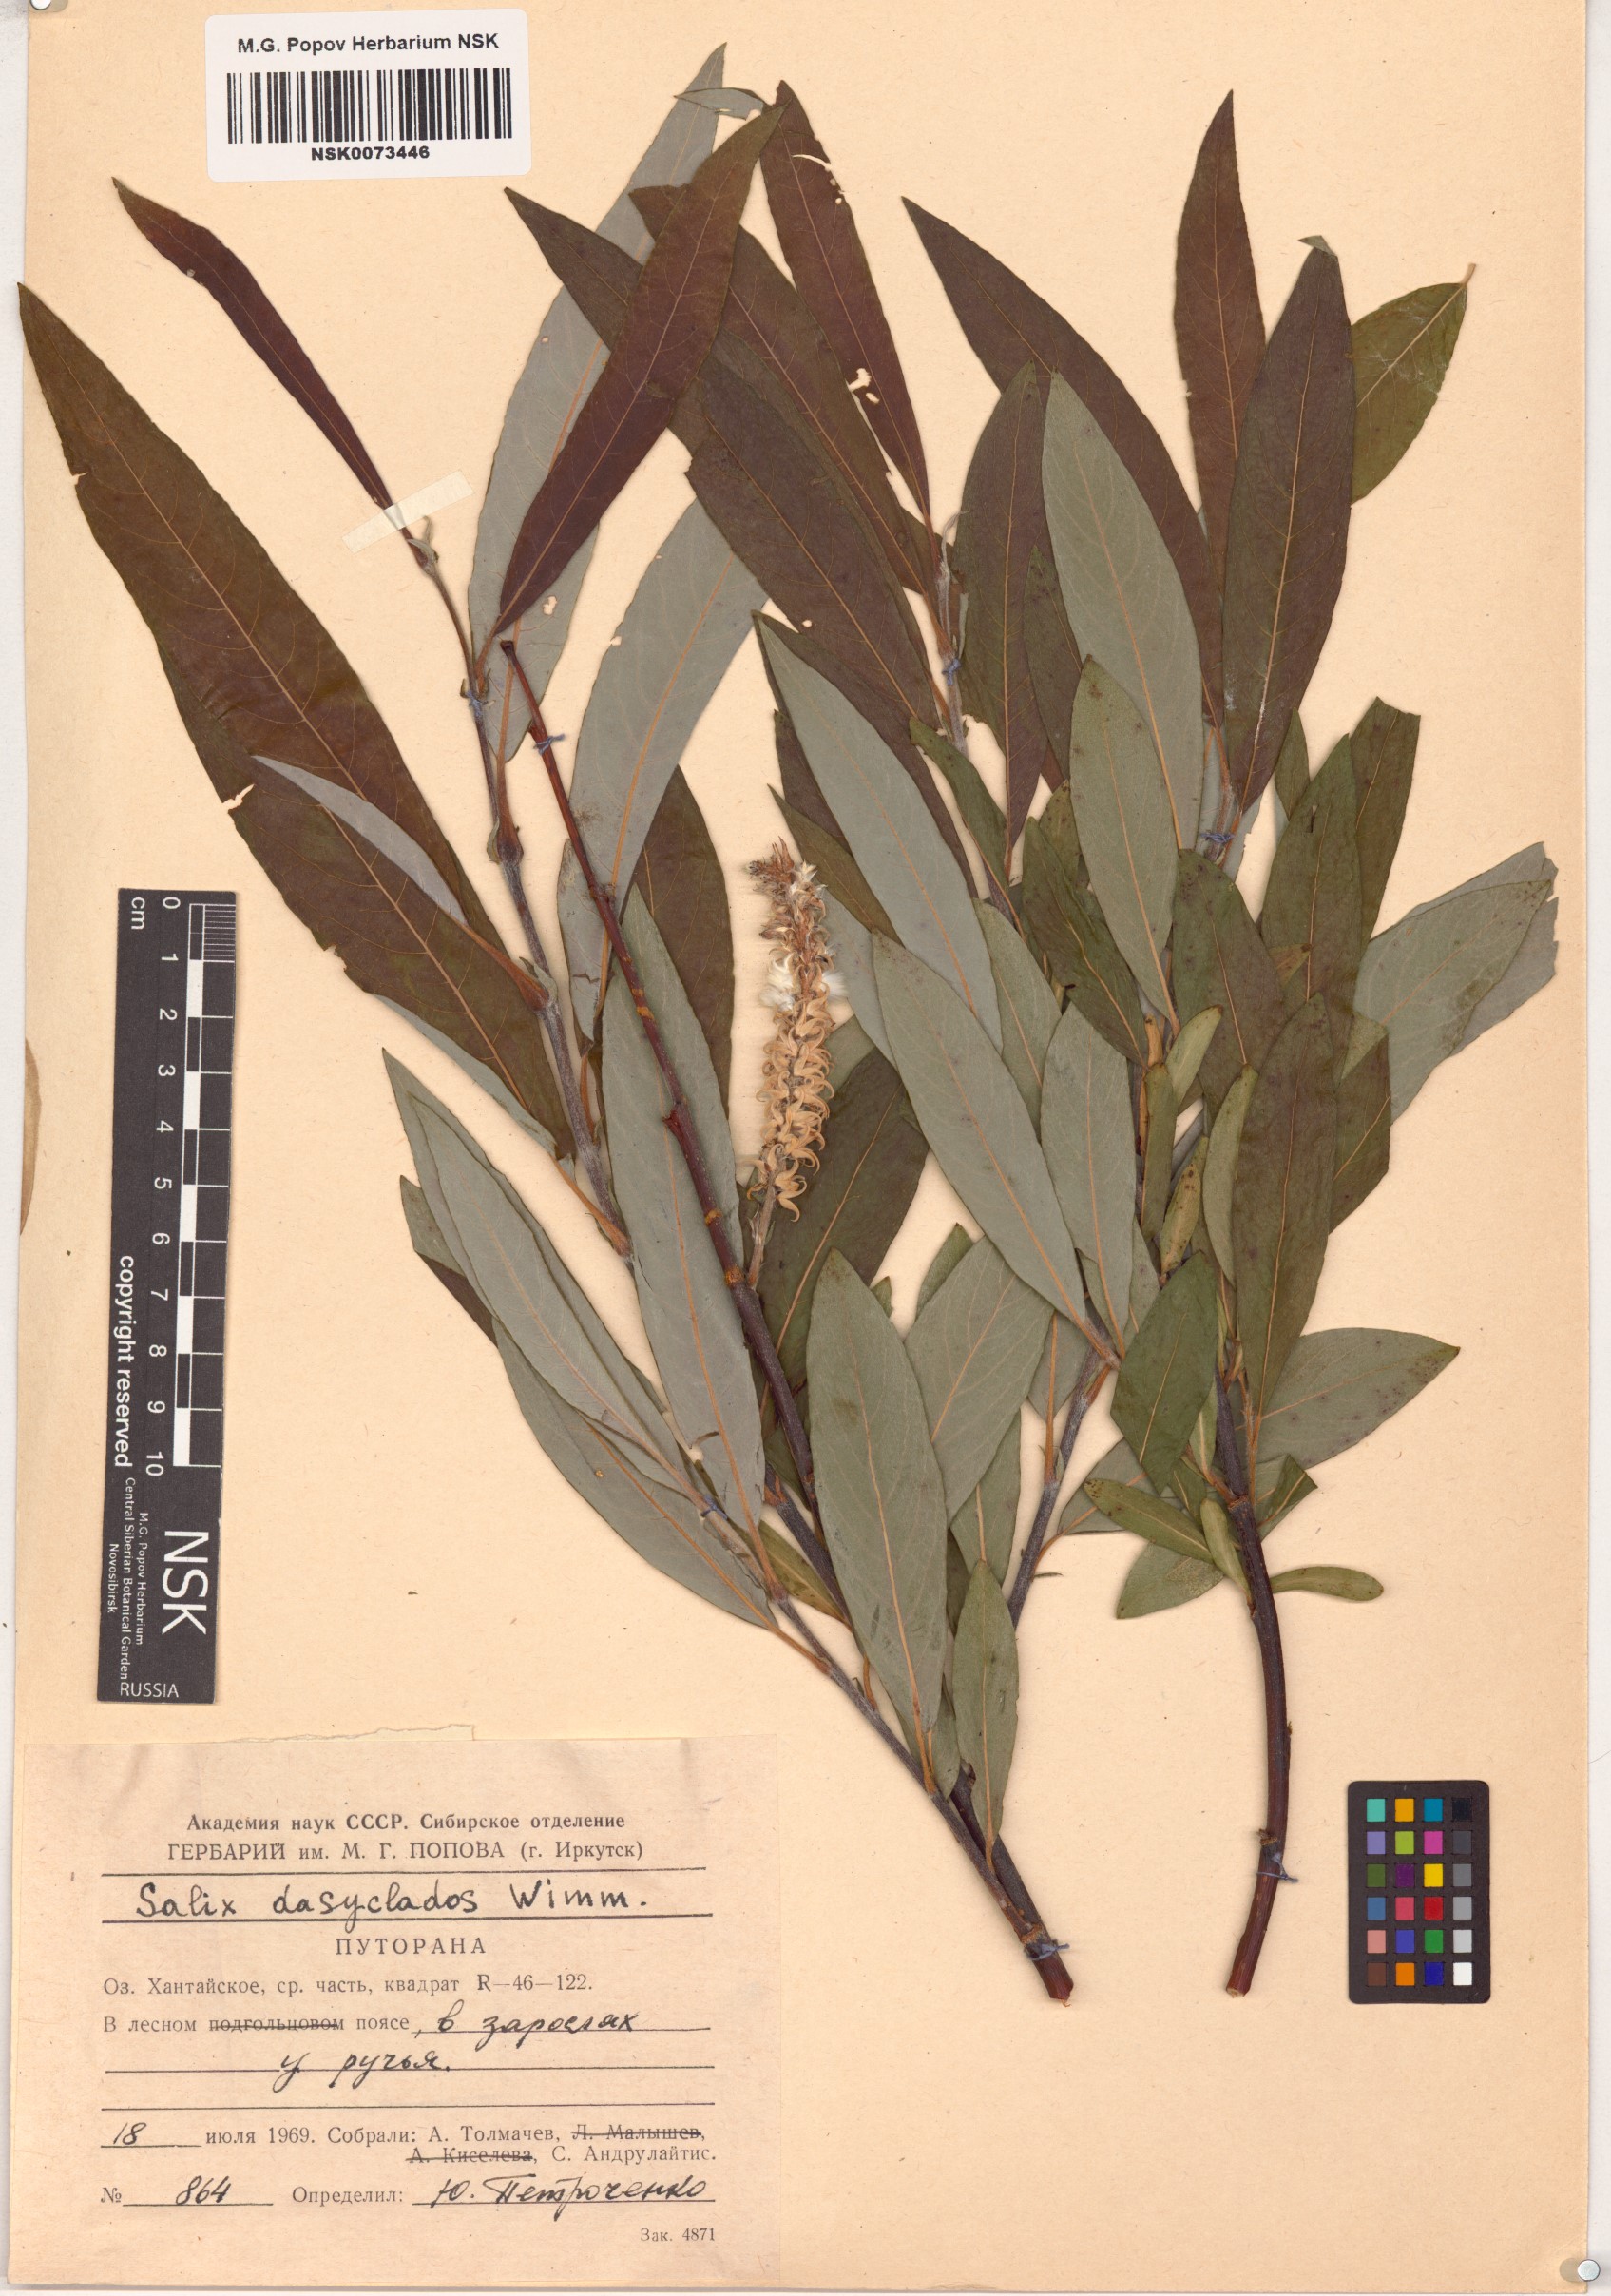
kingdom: Plantae
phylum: Tracheophyta
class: Magnoliopsida
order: Malpighiales
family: Salicaceae
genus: Salix
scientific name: Salix gmelinii
